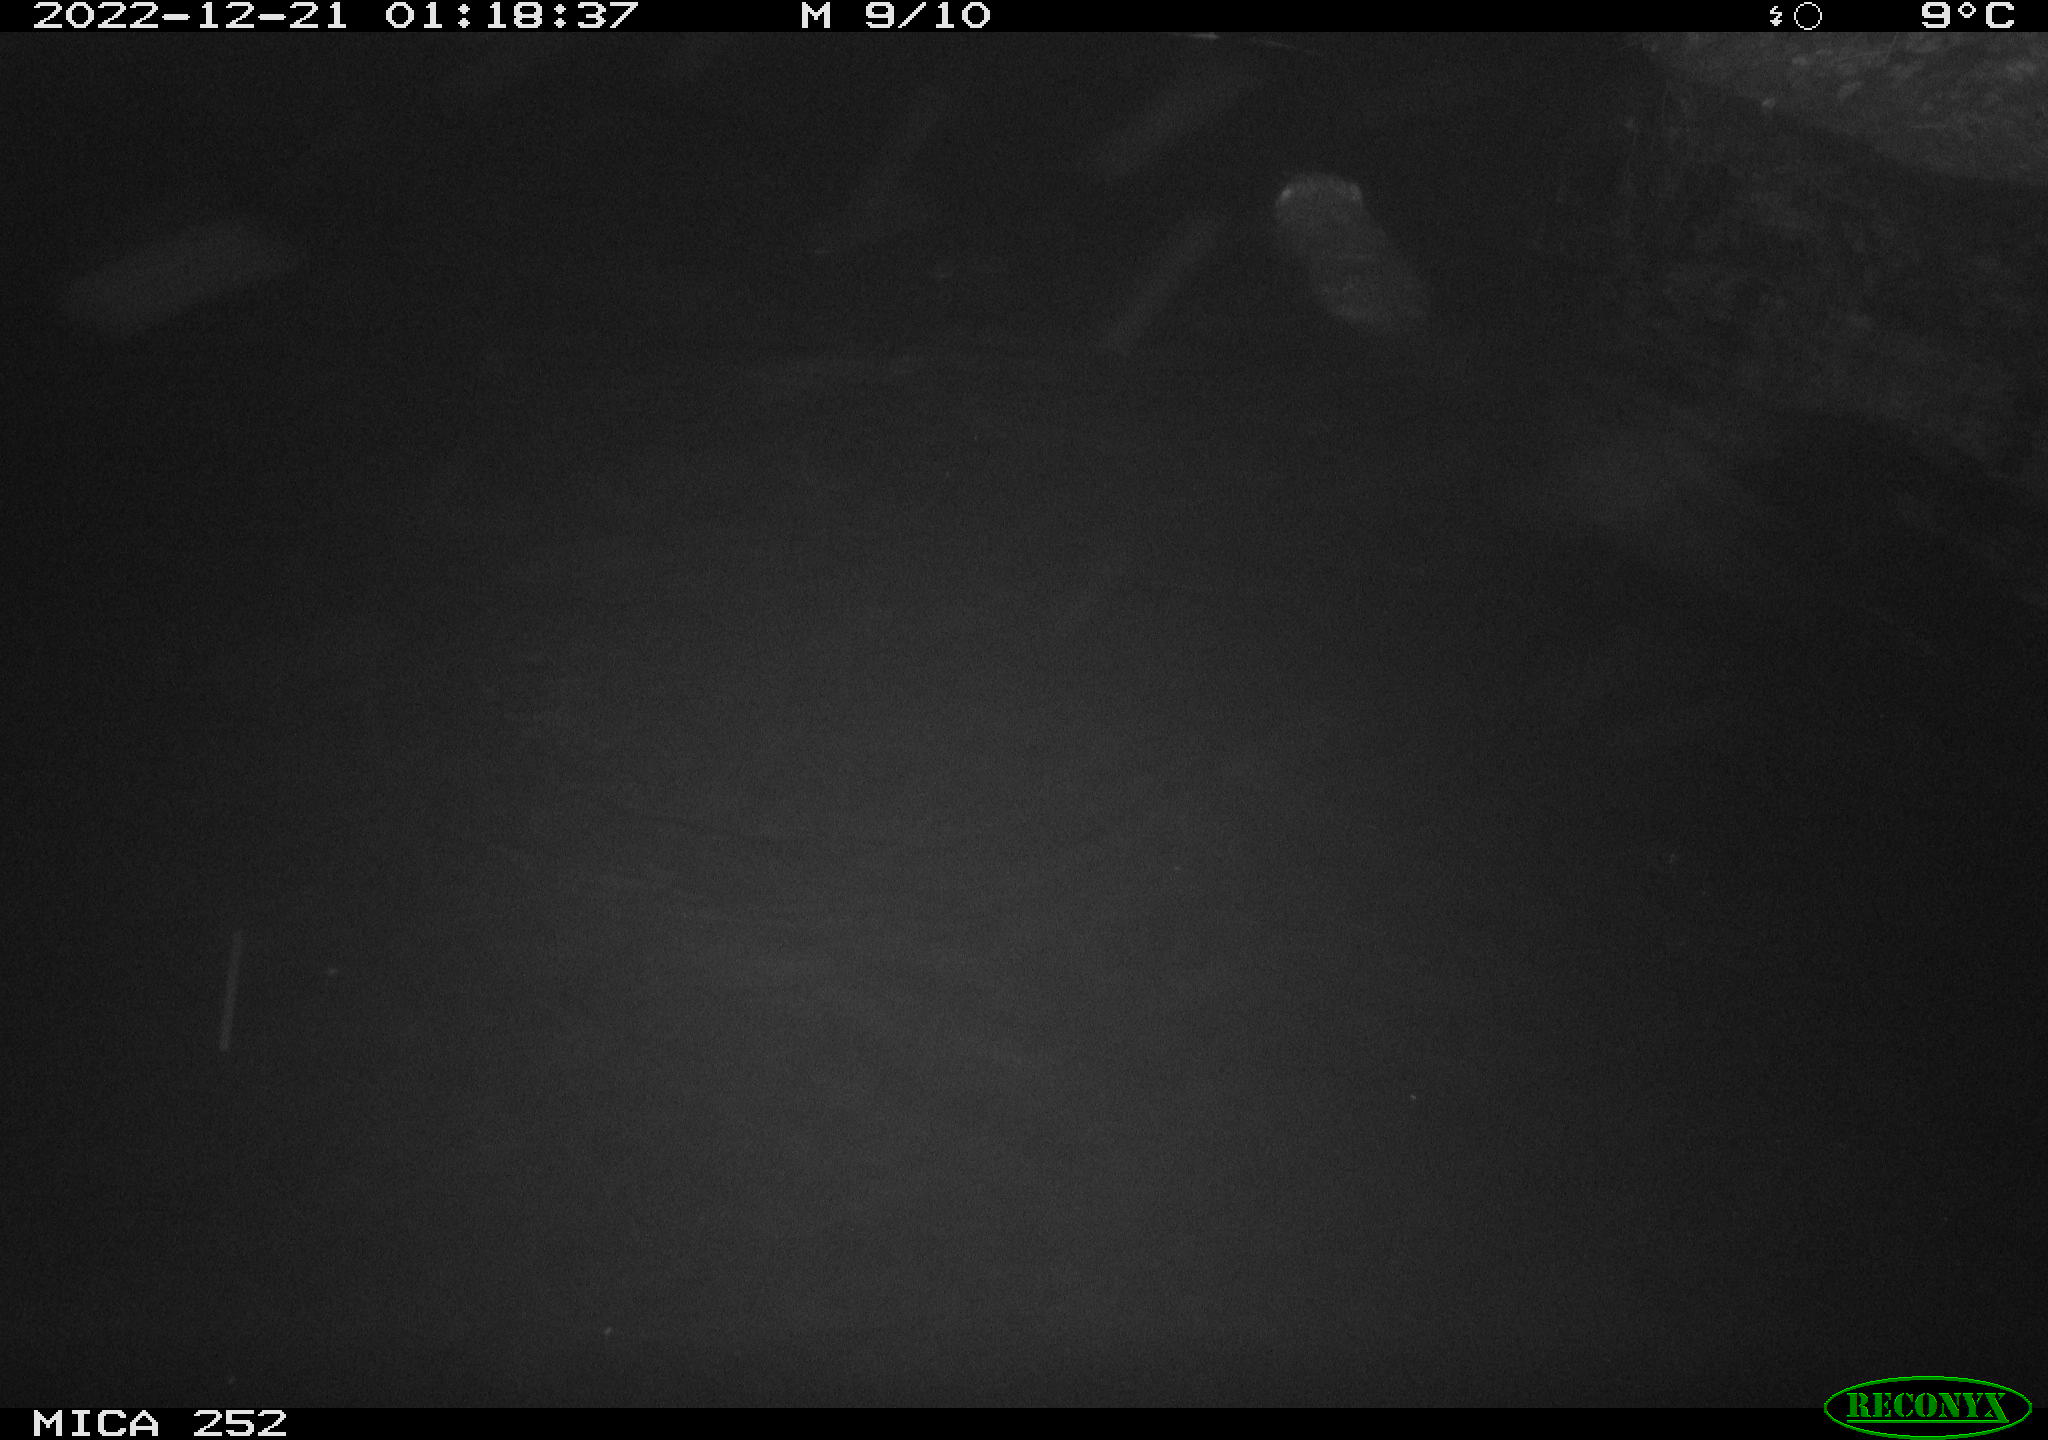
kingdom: Animalia
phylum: Chordata
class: Mammalia
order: Rodentia
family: Castoridae
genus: Castor
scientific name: Castor fiber
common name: Eurasian beaver
